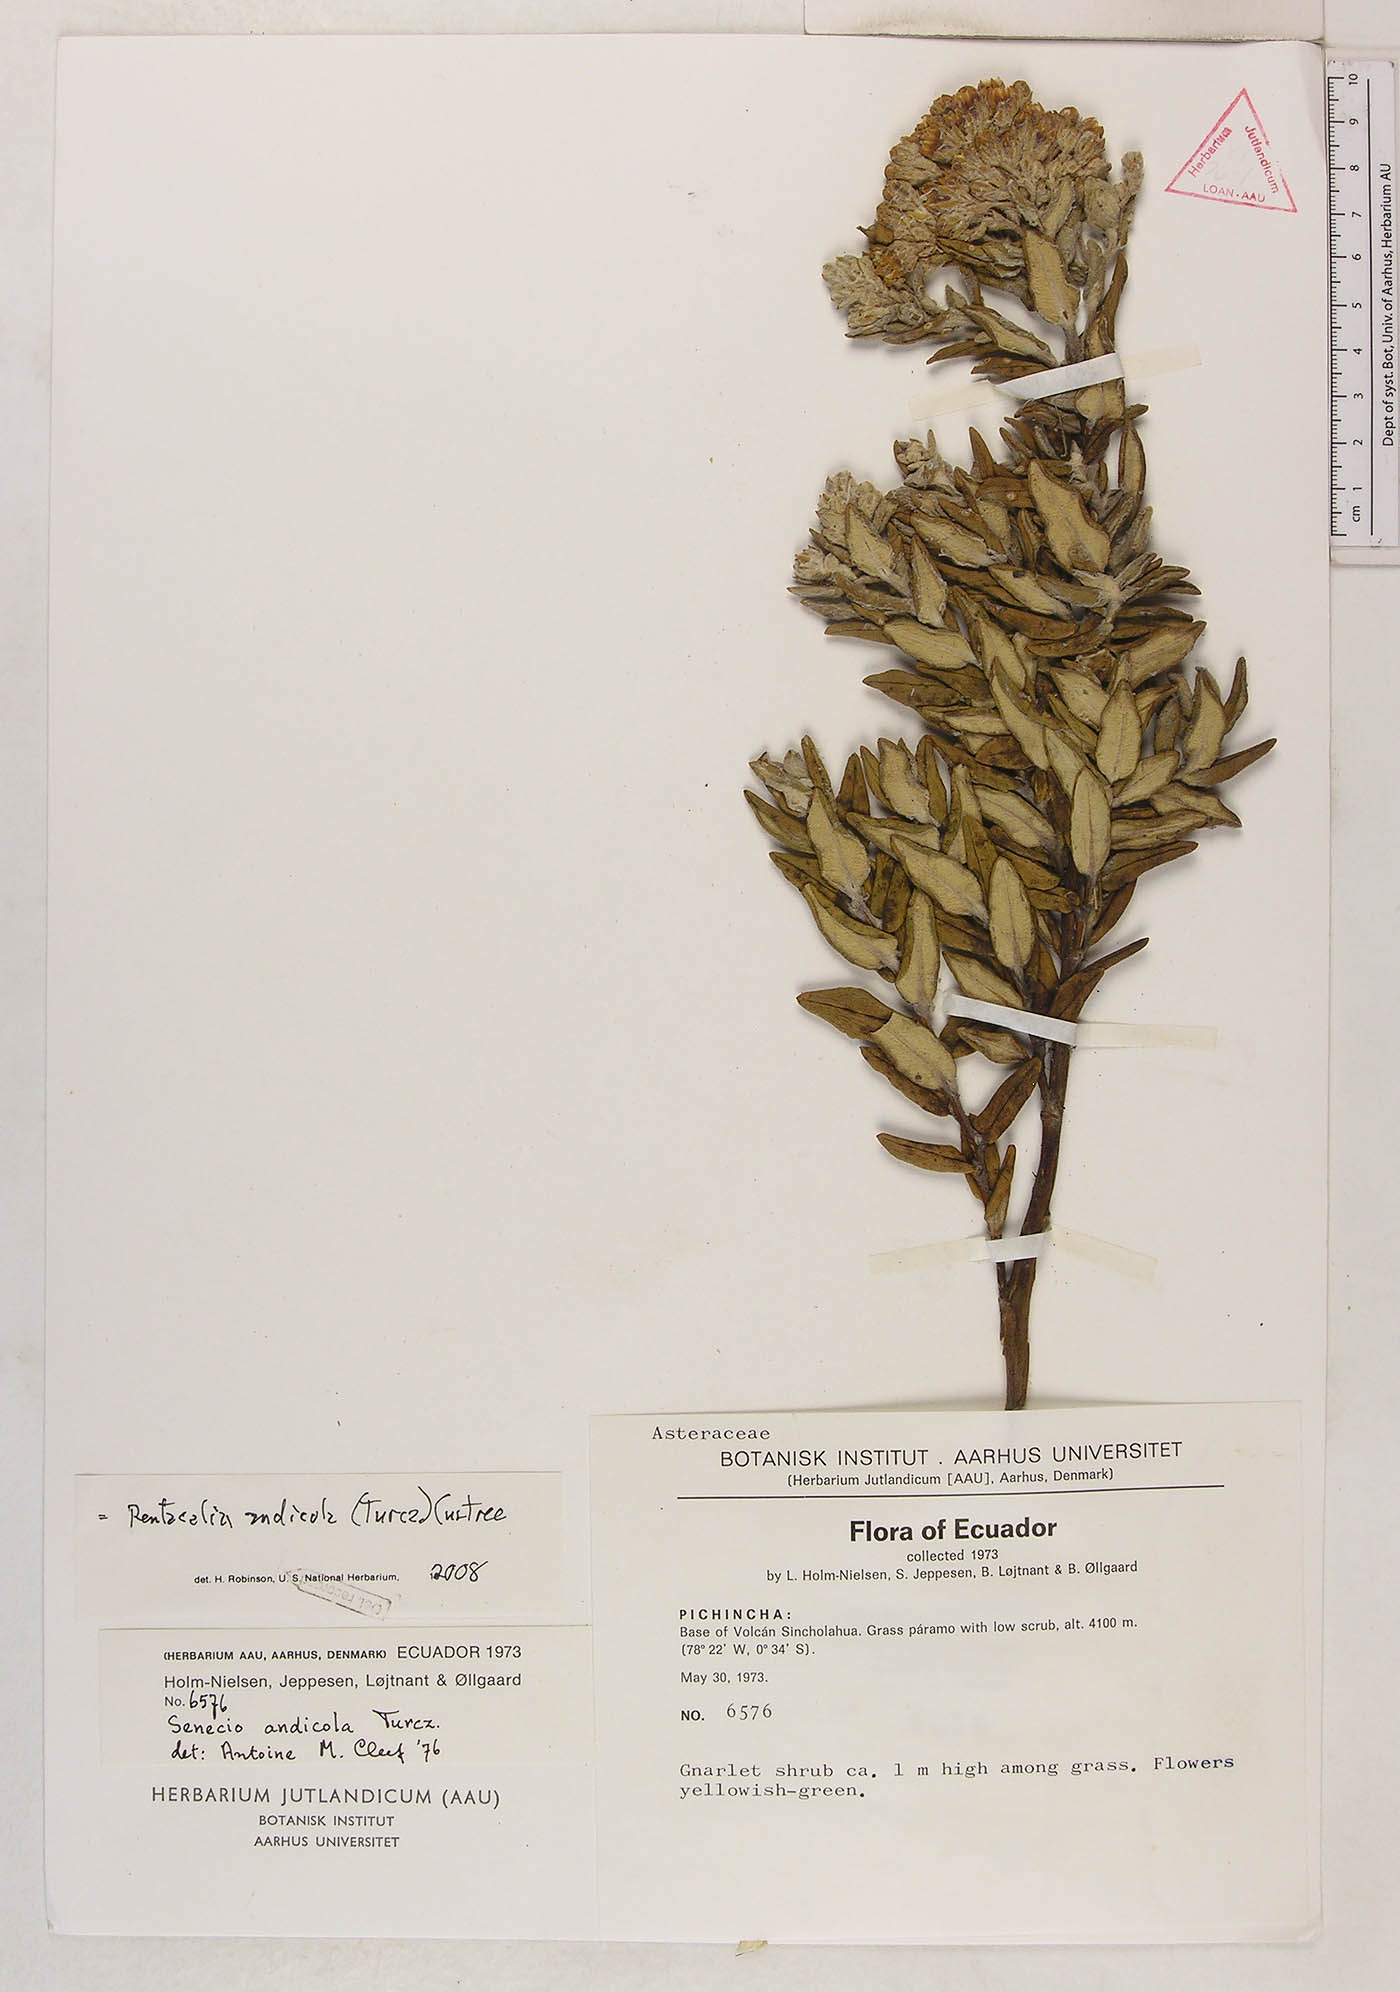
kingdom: Plantae
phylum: Tracheophyta
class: Magnoliopsida
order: Asterales
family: Asteraceae
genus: Monticalia
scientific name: Monticalia andicola
